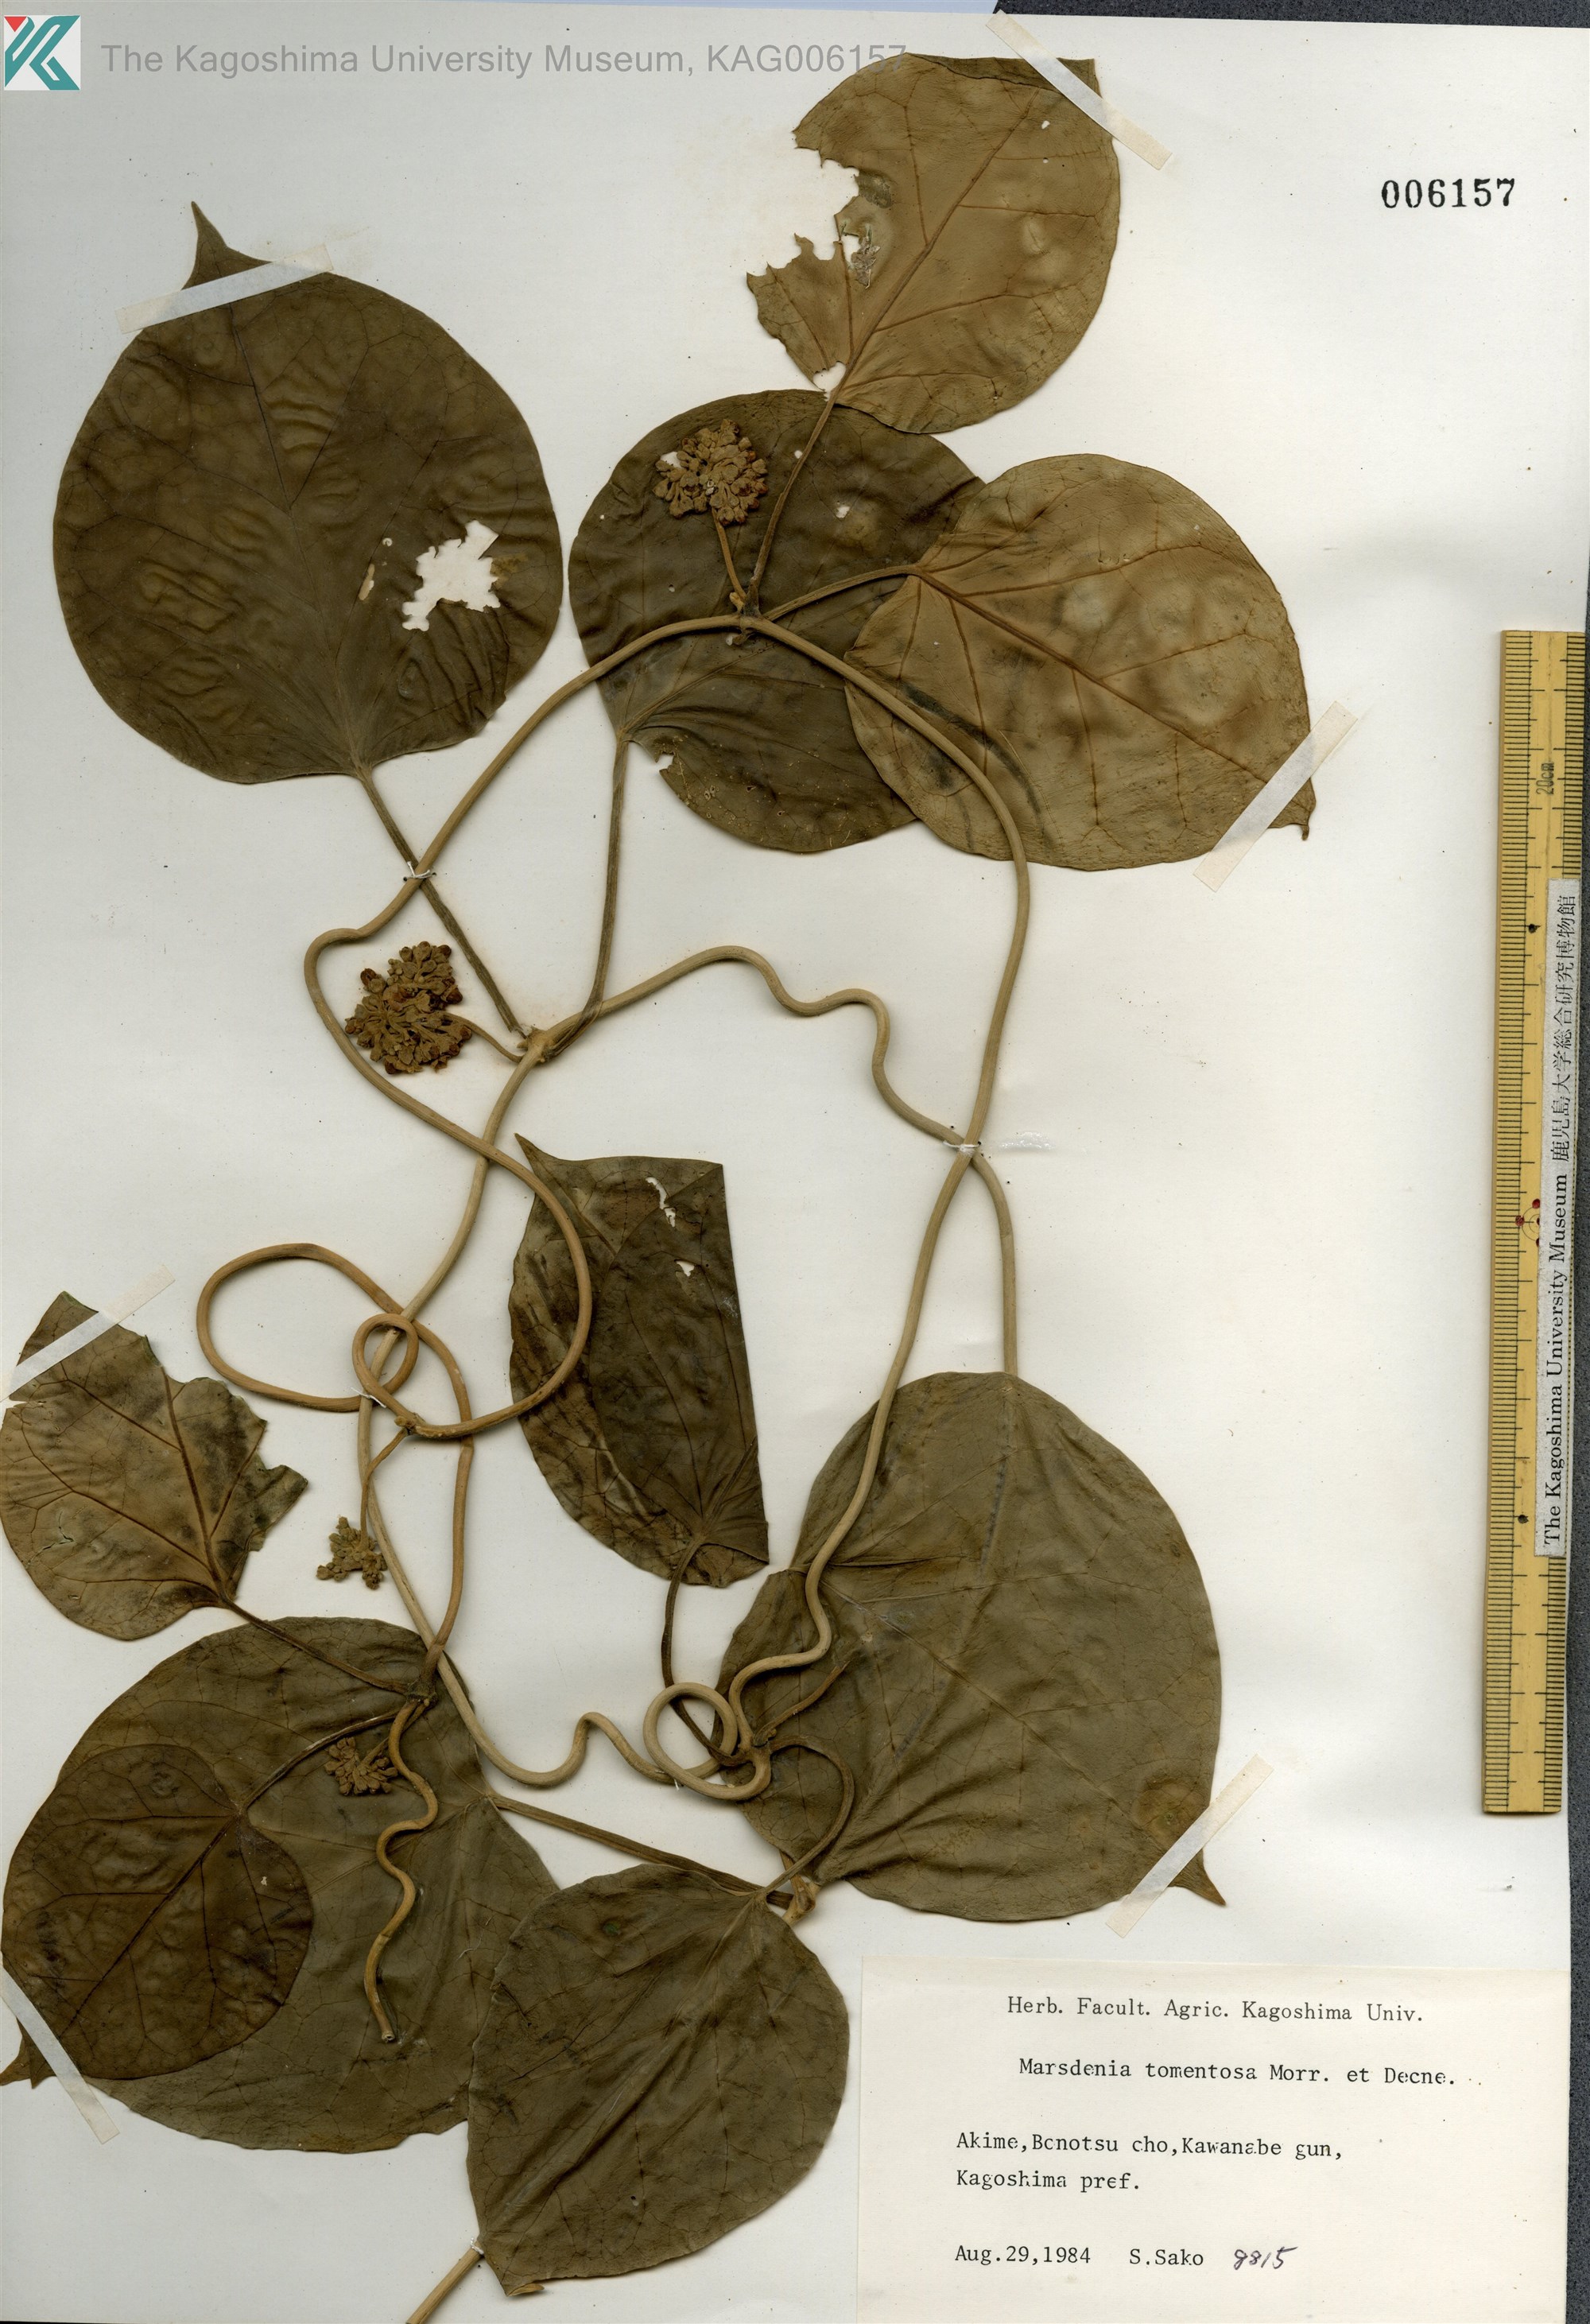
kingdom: Plantae
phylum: Tracheophyta
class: Magnoliopsida
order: Gentianales
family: Apocynaceae
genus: Sinomarsdenia
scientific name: Sinomarsdenia tomentosa
